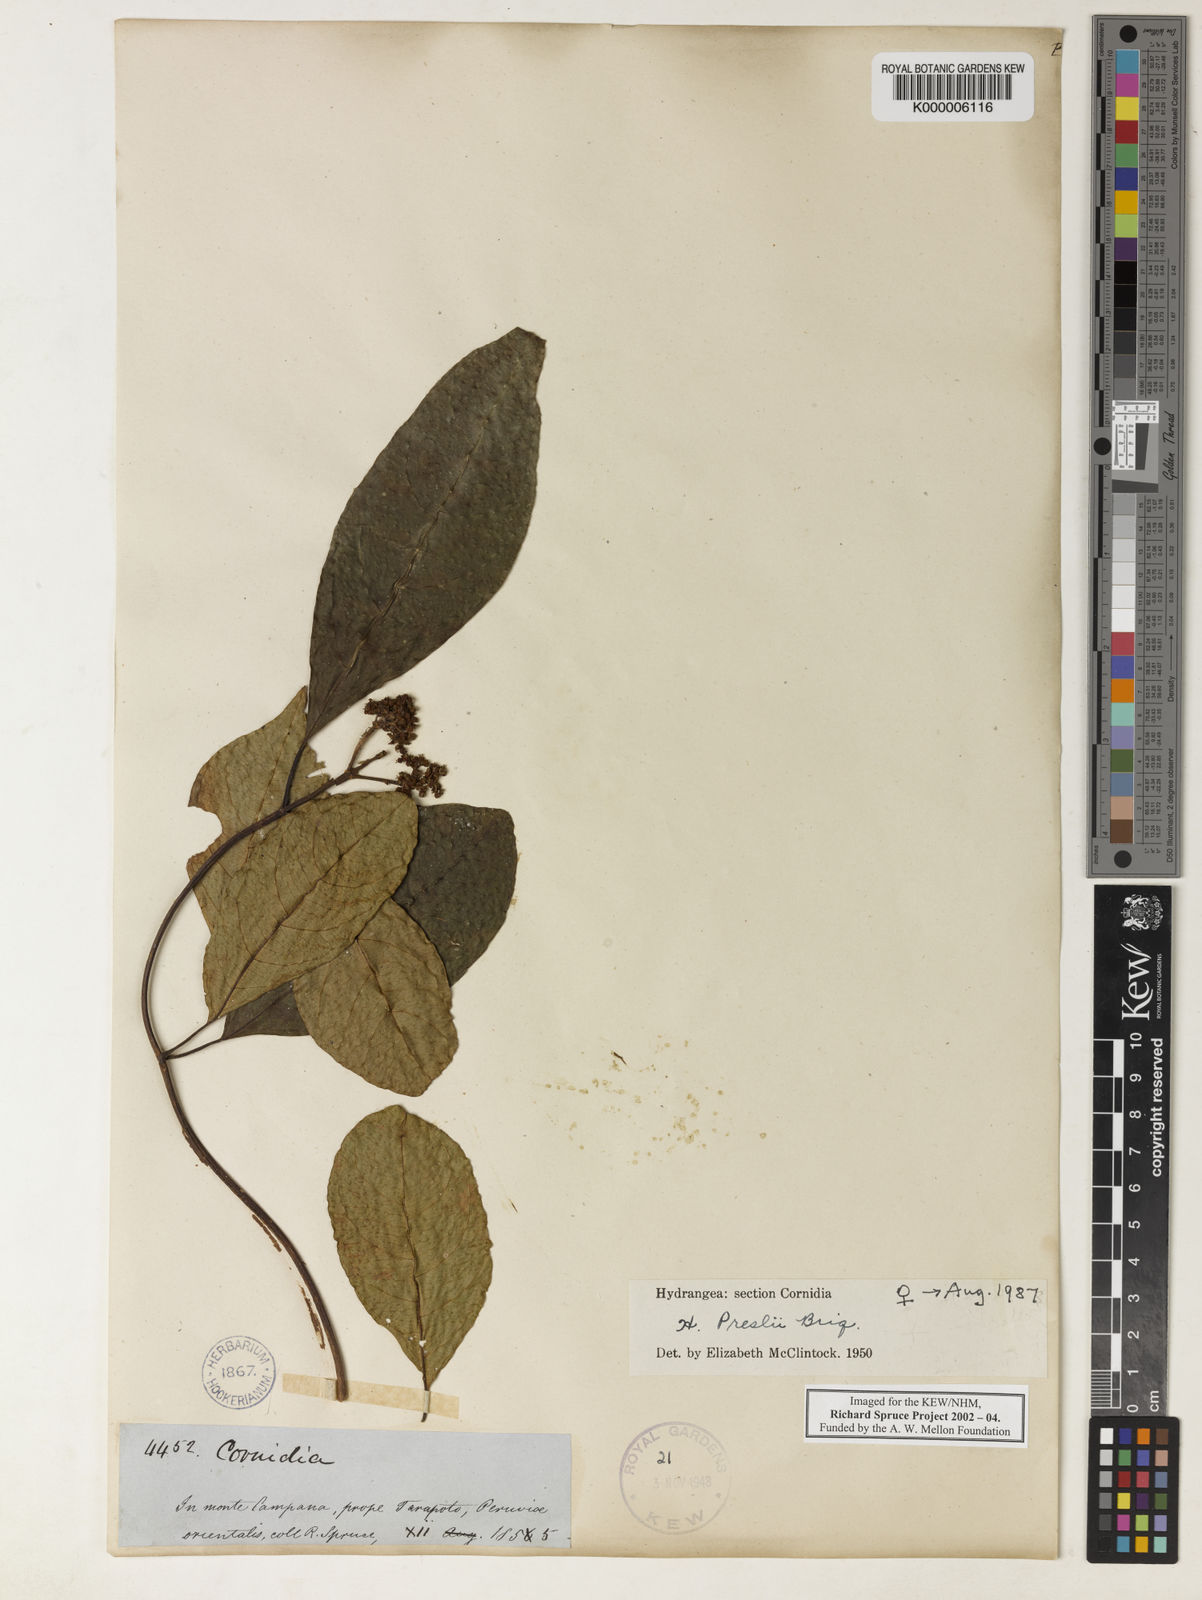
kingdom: Plantae
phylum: Tracheophyta
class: Magnoliopsida
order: Cornales
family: Hydrangeaceae
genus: Hydrangea
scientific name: Hydrangea diplostemona
